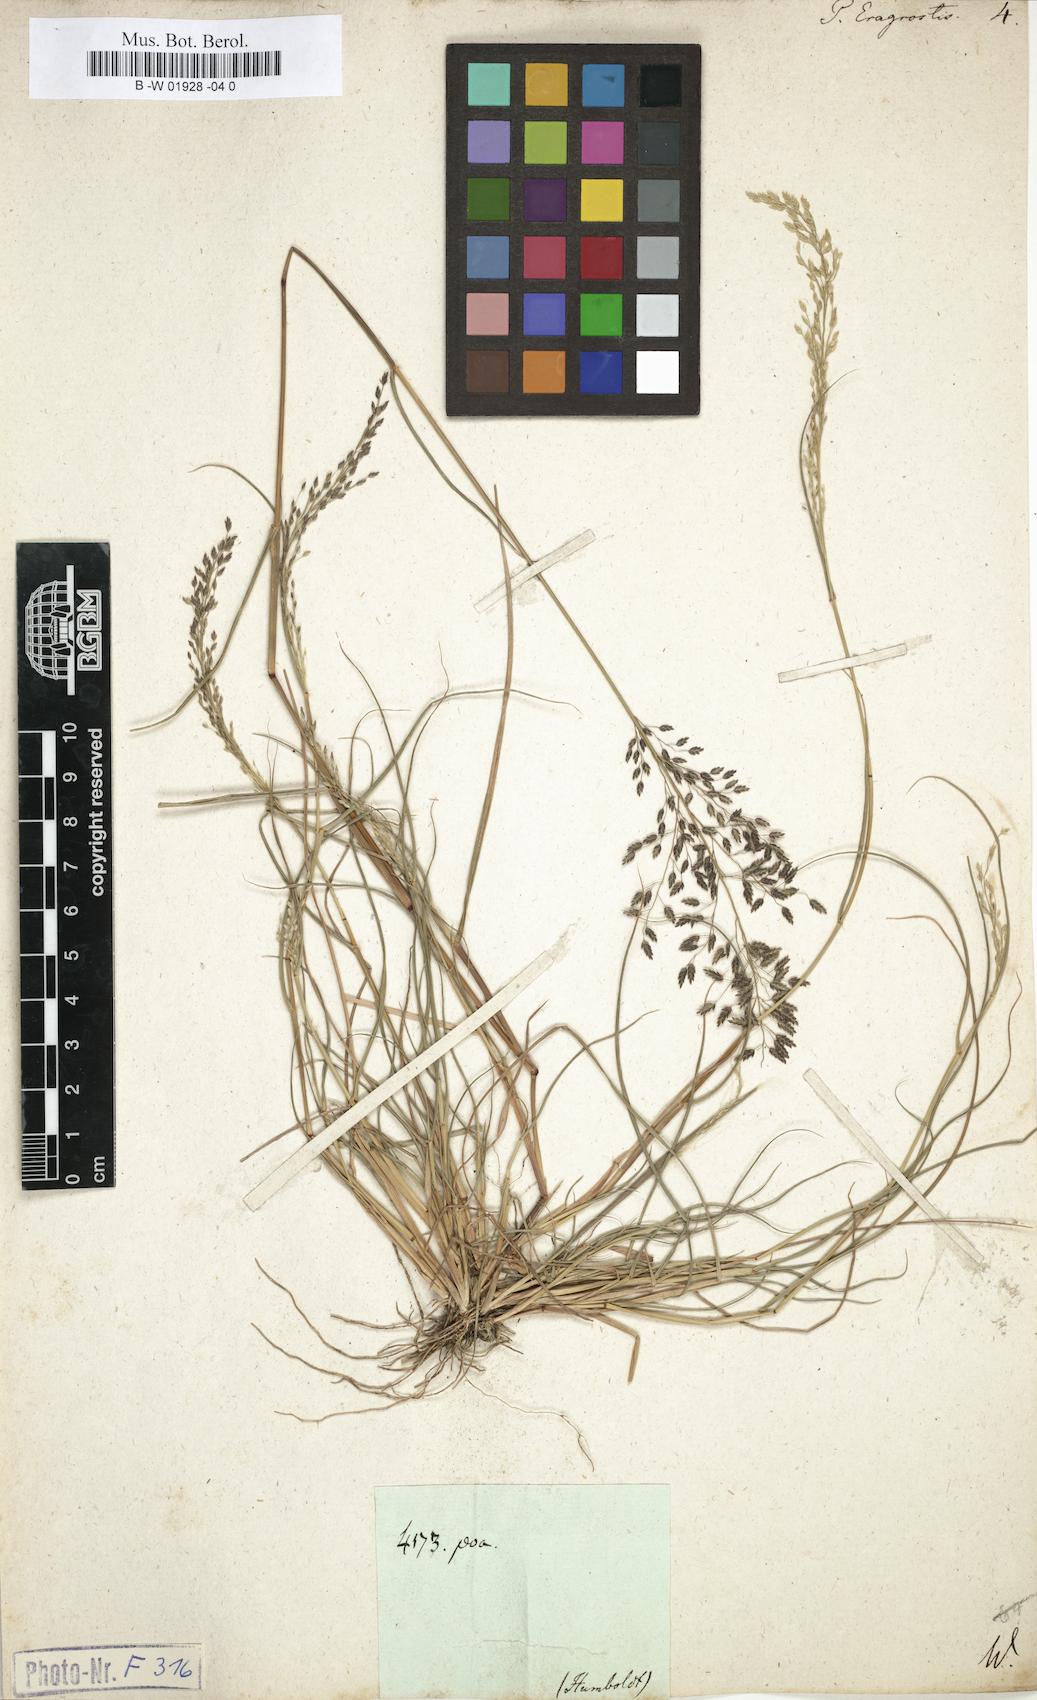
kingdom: Plantae
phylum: Tracheophyta
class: Liliopsida
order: Poales
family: Poaceae
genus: Poa
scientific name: Poa eragrostis
